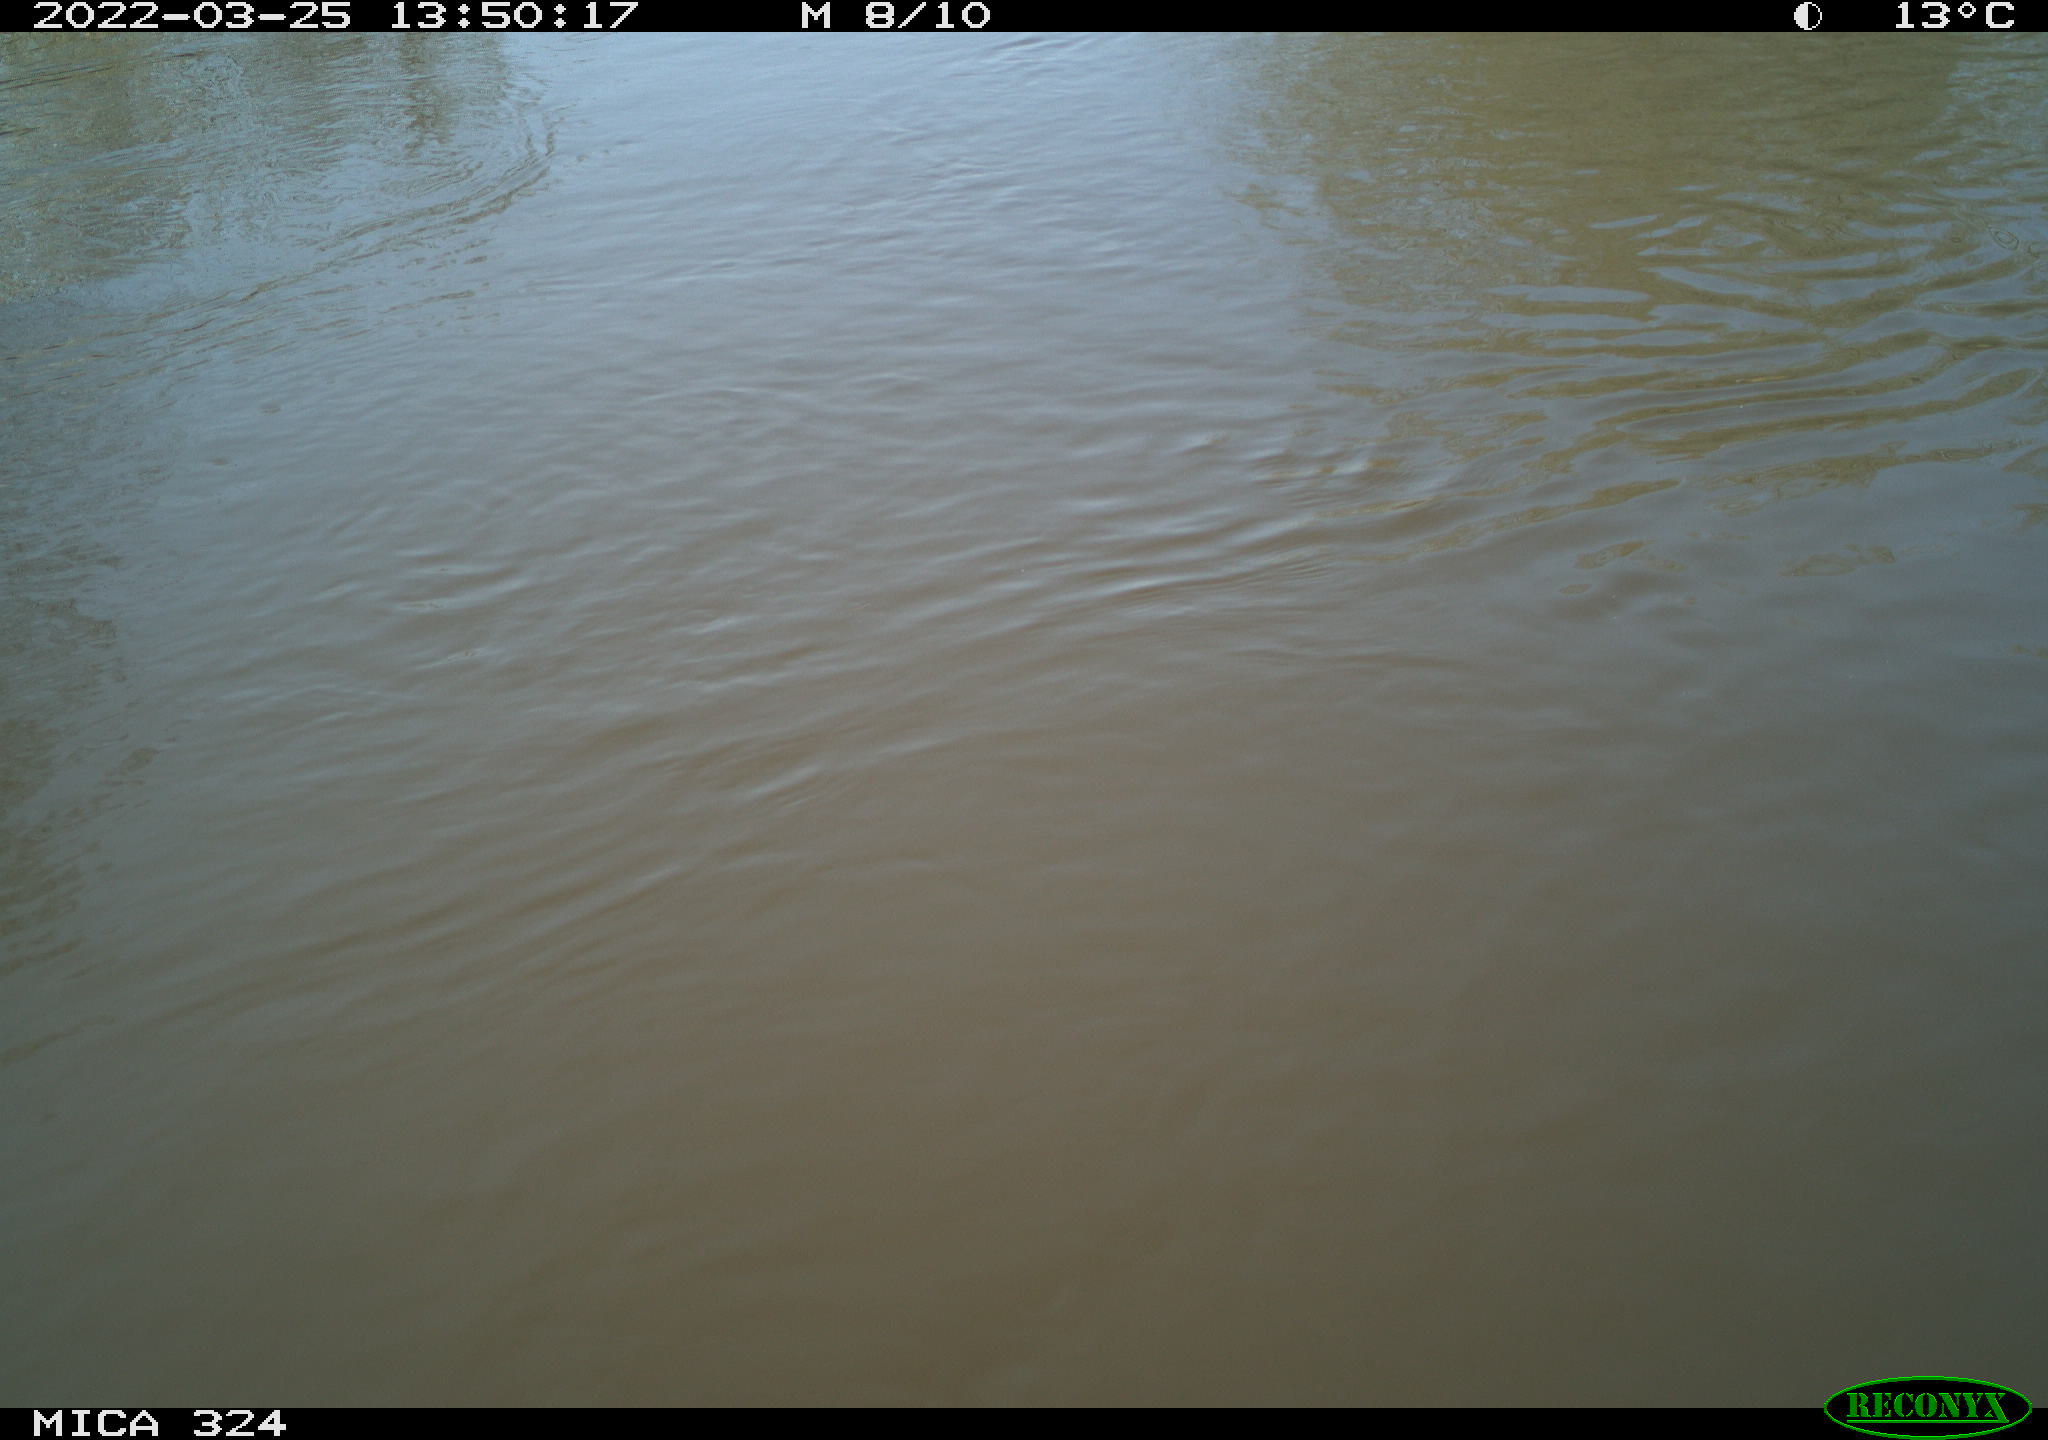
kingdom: Animalia
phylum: Chordata
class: Aves
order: Gruiformes
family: Rallidae
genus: Gallinula
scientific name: Gallinula chloropus
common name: Common moorhen
